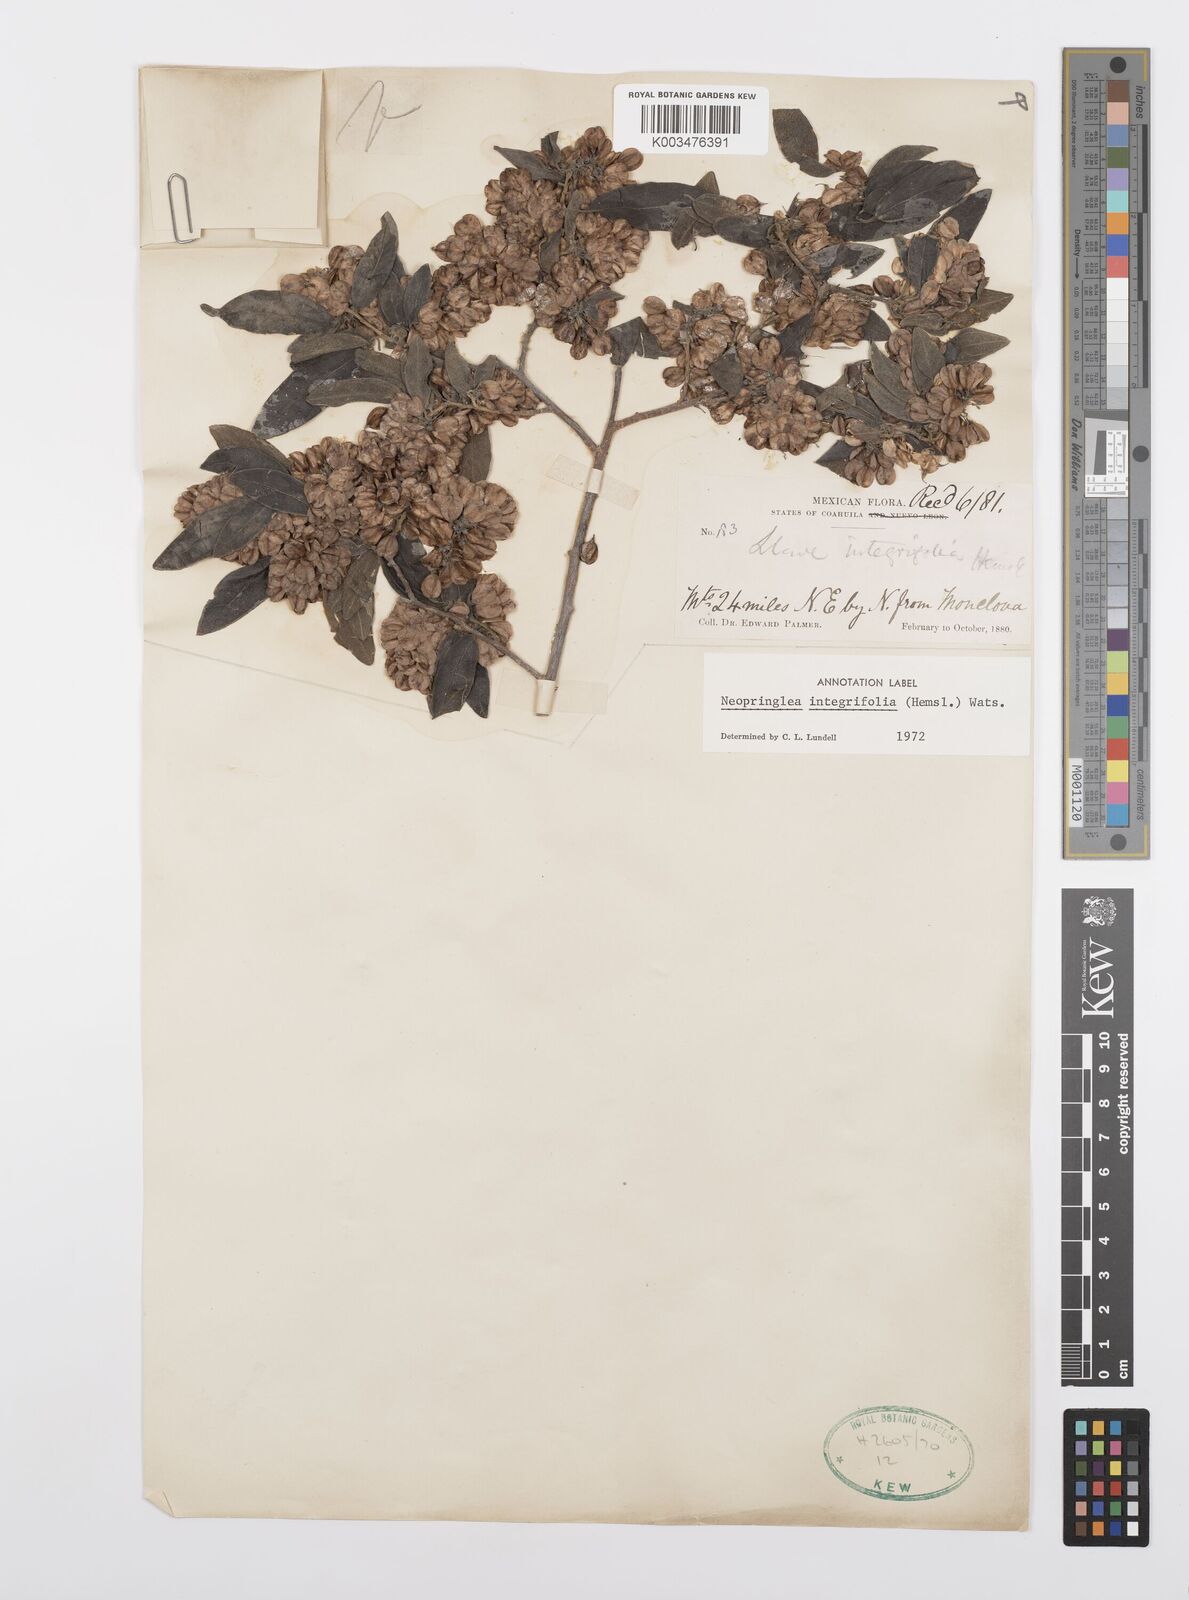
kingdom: Plantae
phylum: Tracheophyta
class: Magnoliopsida
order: Malpighiales
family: Salicaceae
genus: Neopringlea
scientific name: Neopringlea integrifolia
